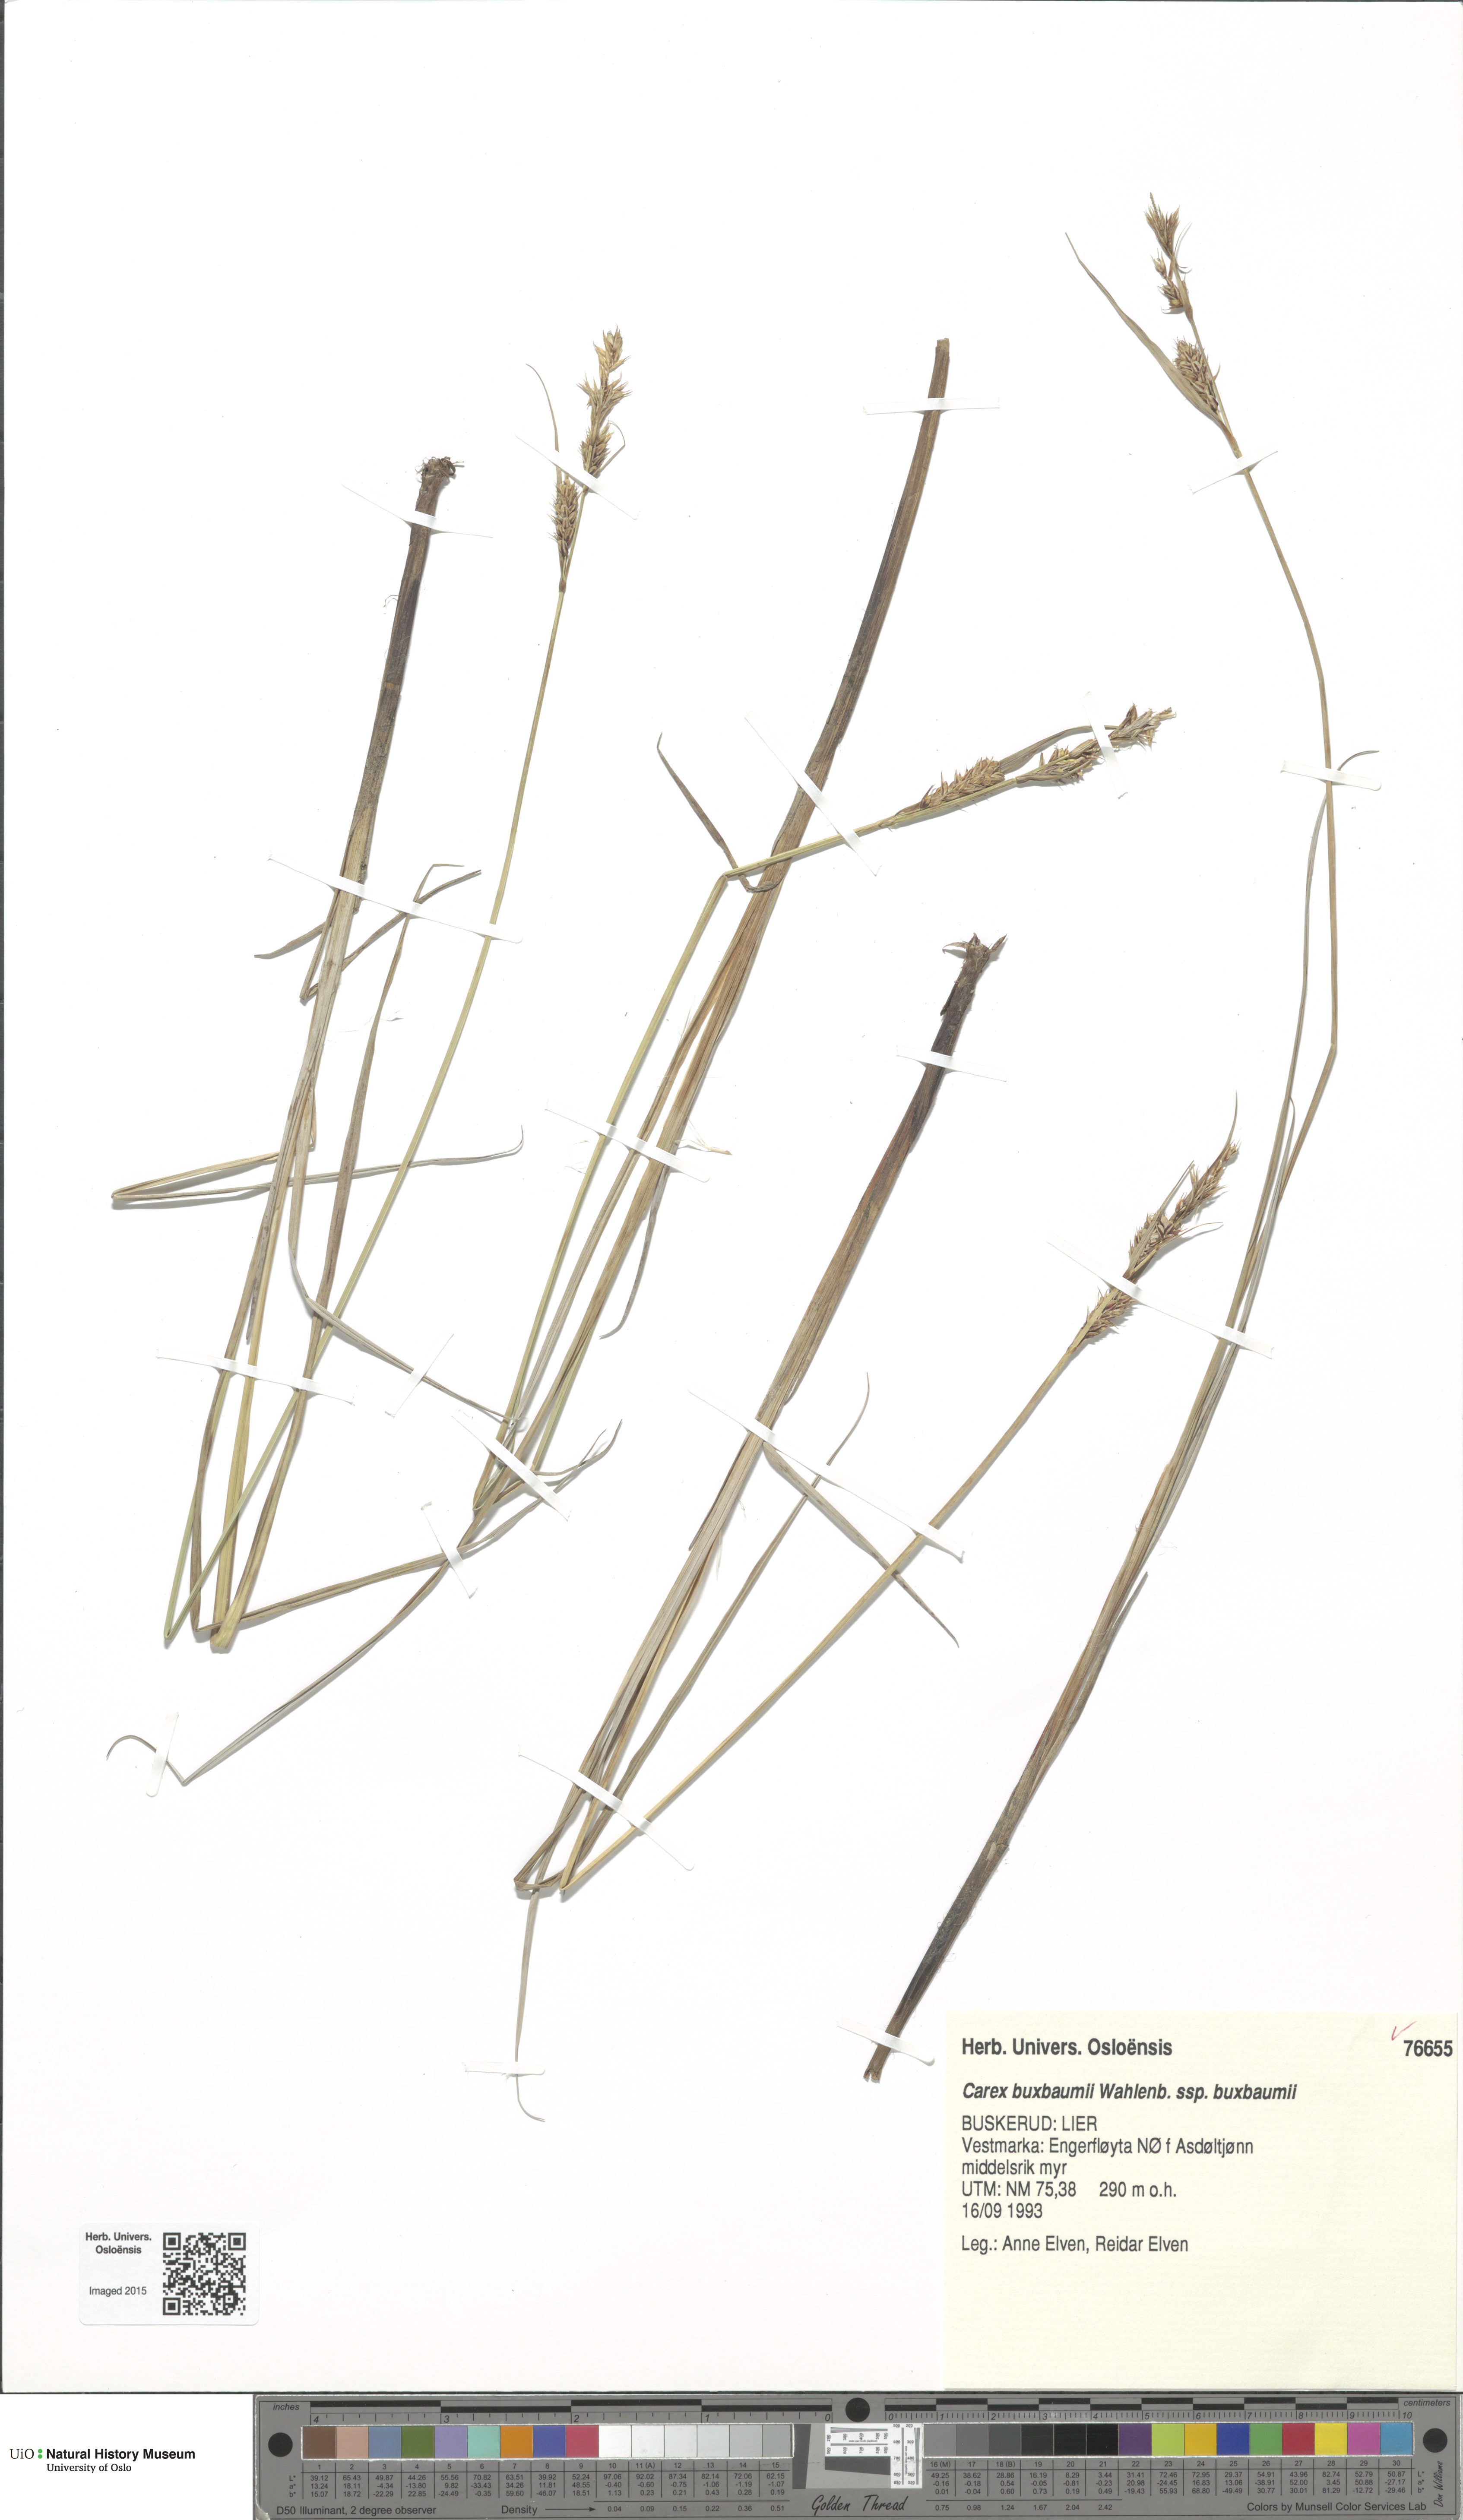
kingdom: Plantae
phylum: Tracheophyta
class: Liliopsida
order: Poales
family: Cyperaceae
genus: Carex
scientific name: Carex buxbaumii
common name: Club sedge
